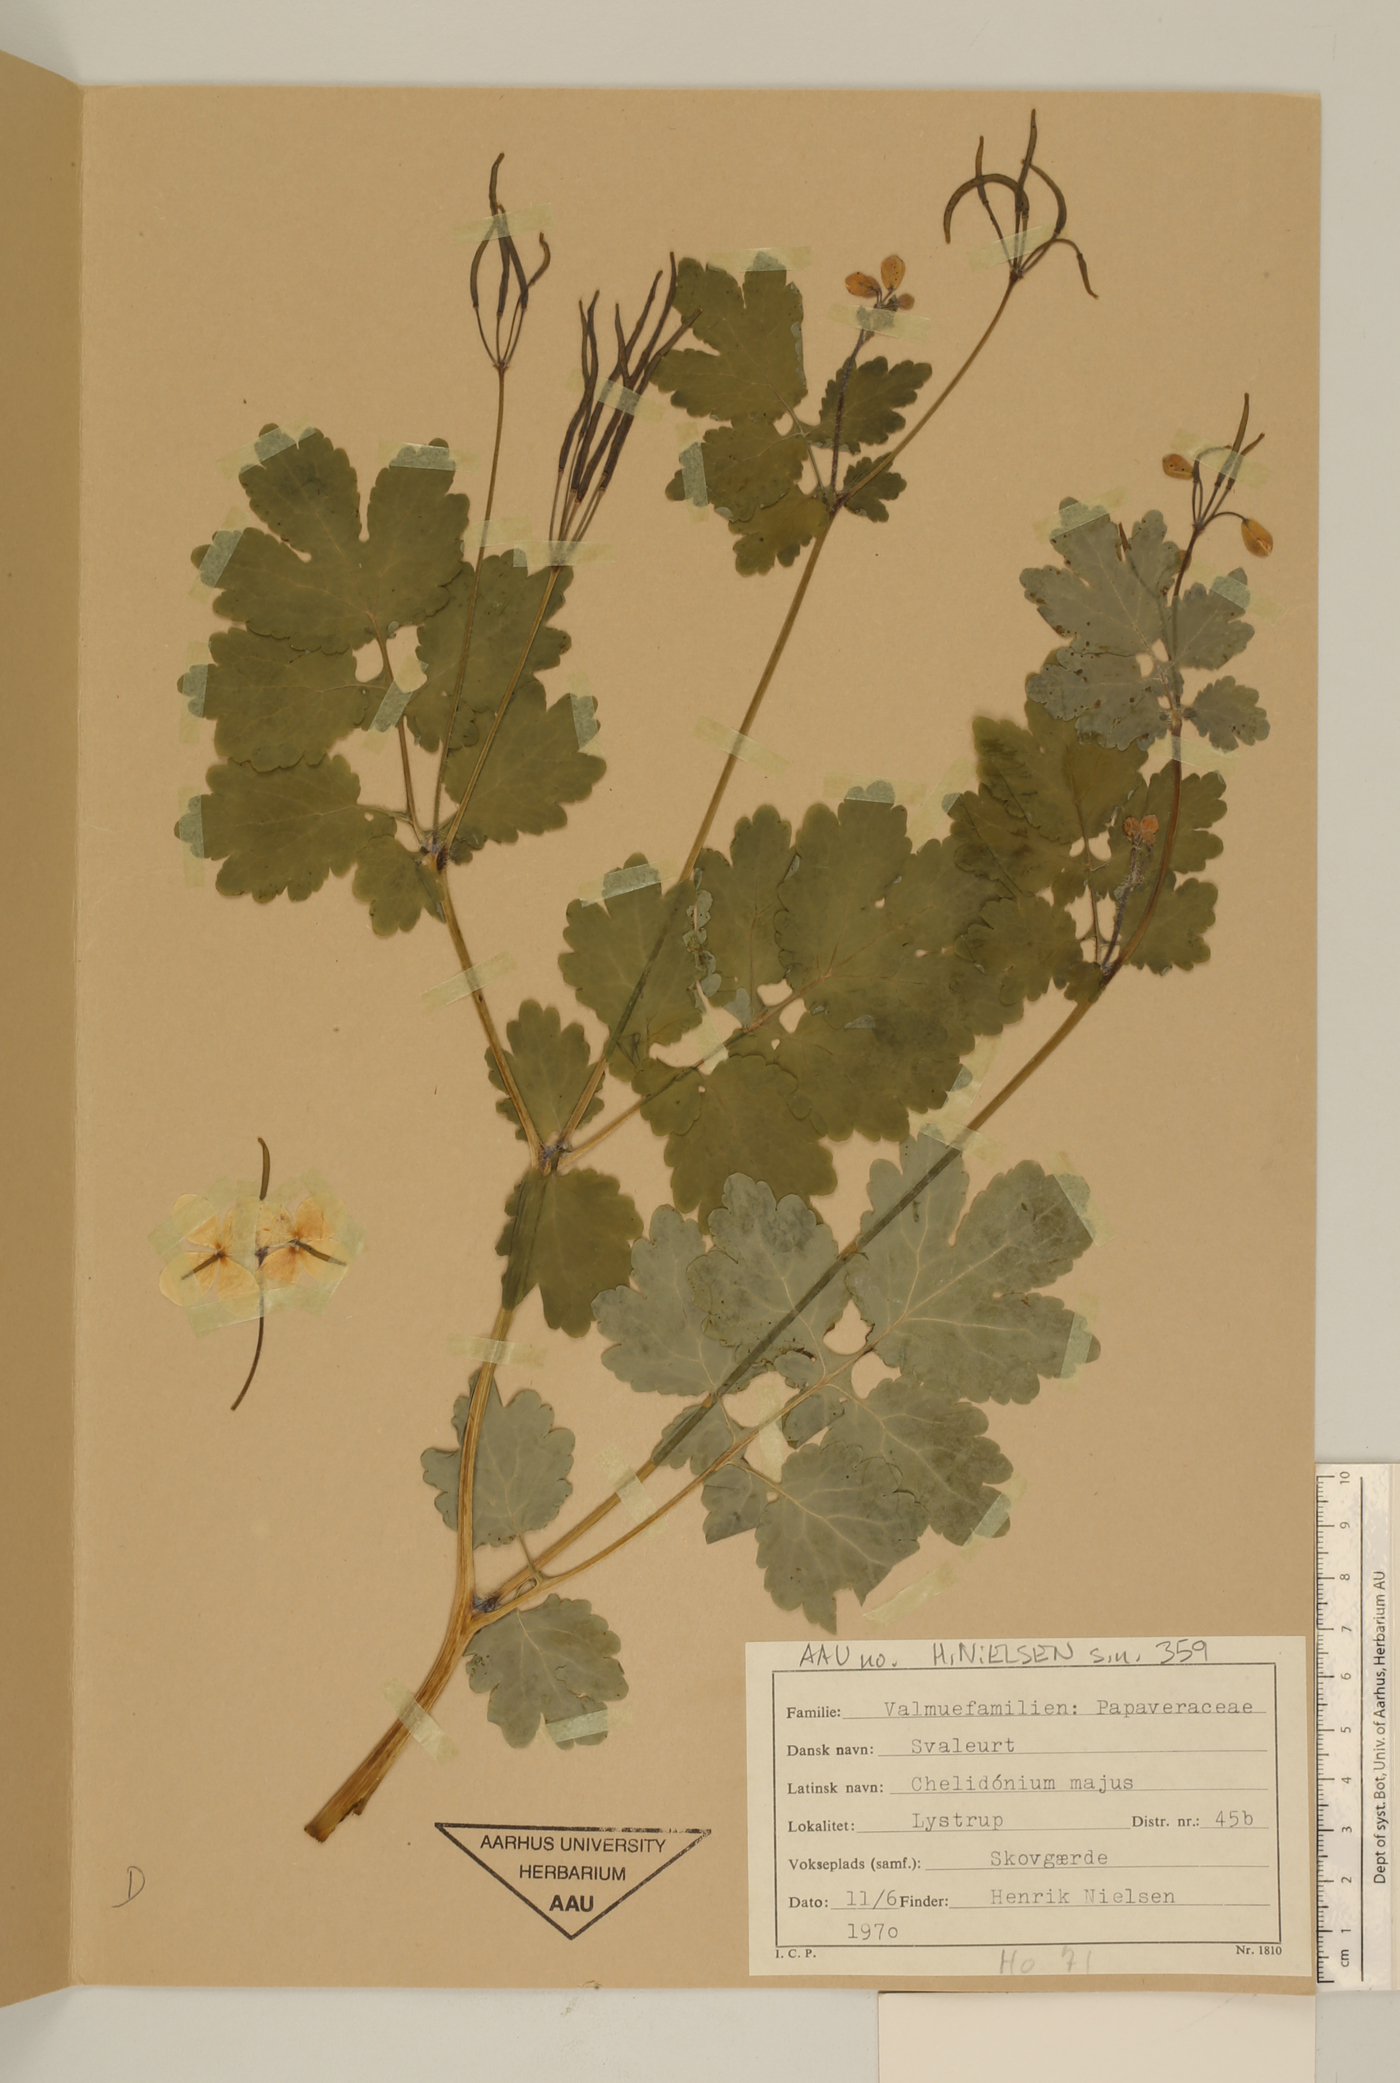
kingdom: Plantae
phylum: Tracheophyta
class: Magnoliopsida
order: Ranunculales
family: Papaveraceae
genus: Chelidonium
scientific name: Chelidonium majus
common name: Greater celandine
